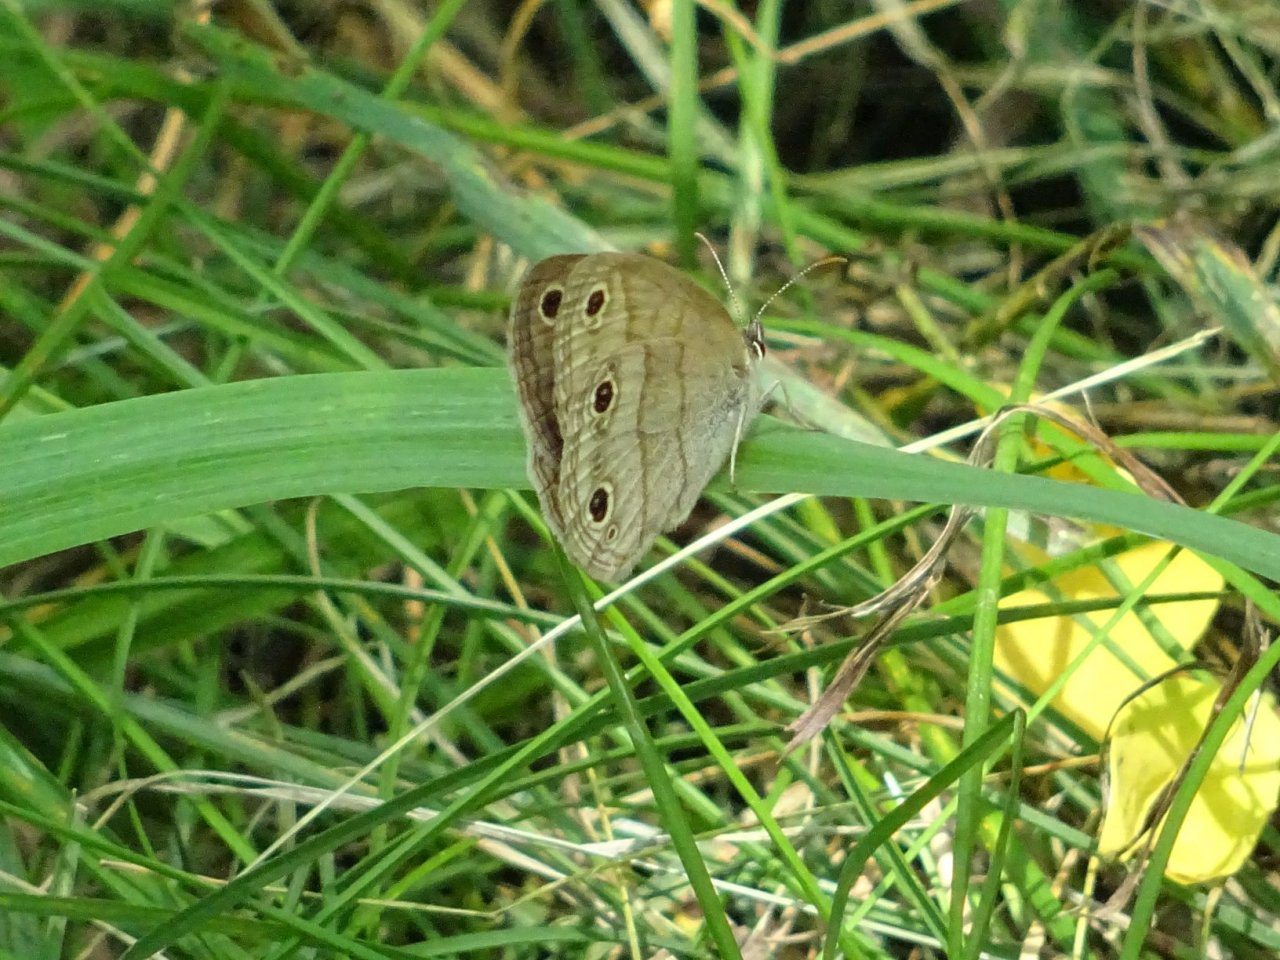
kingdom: Animalia
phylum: Arthropoda
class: Insecta
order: Lepidoptera
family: Nymphalidae
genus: Euptychia
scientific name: Euptychia cymela
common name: Little Wood Satyr
